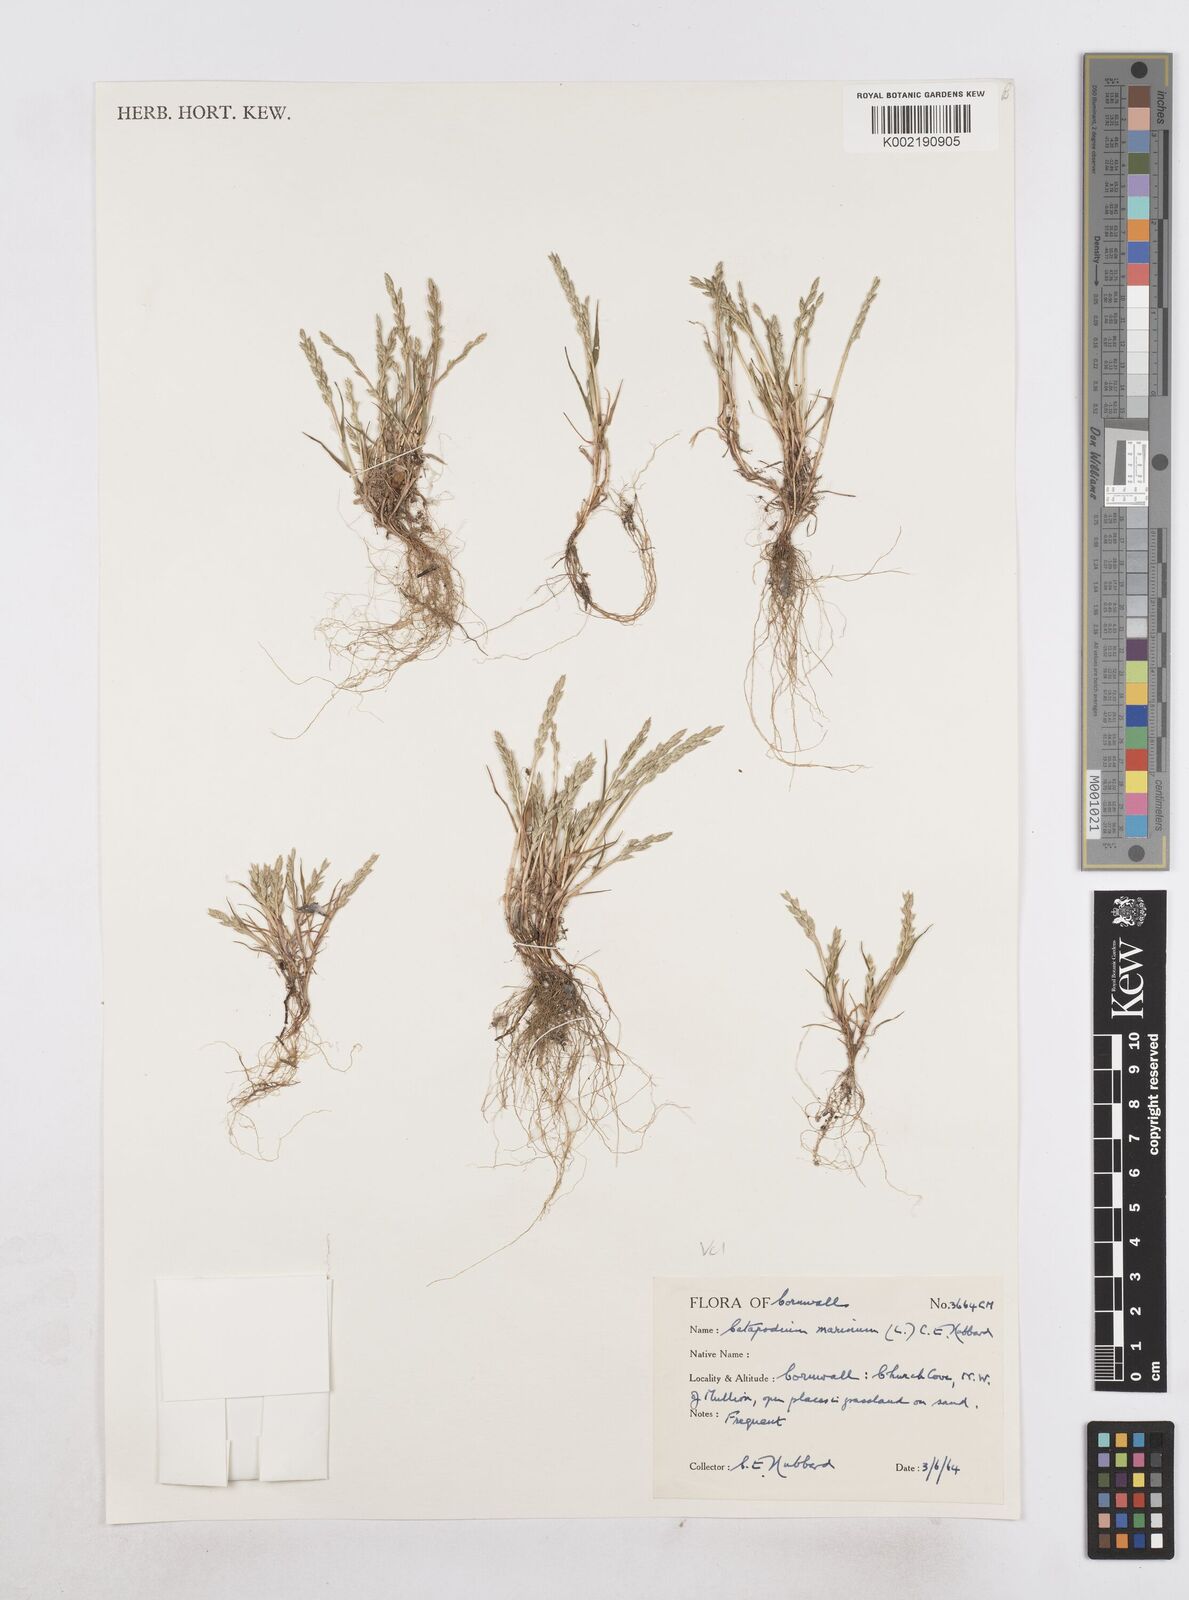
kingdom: Plantae
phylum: Tracheophyta
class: Liliopsida
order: Poales
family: Poaceae
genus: Catapodium
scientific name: Catapodium marinum
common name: Sea fern-grass
